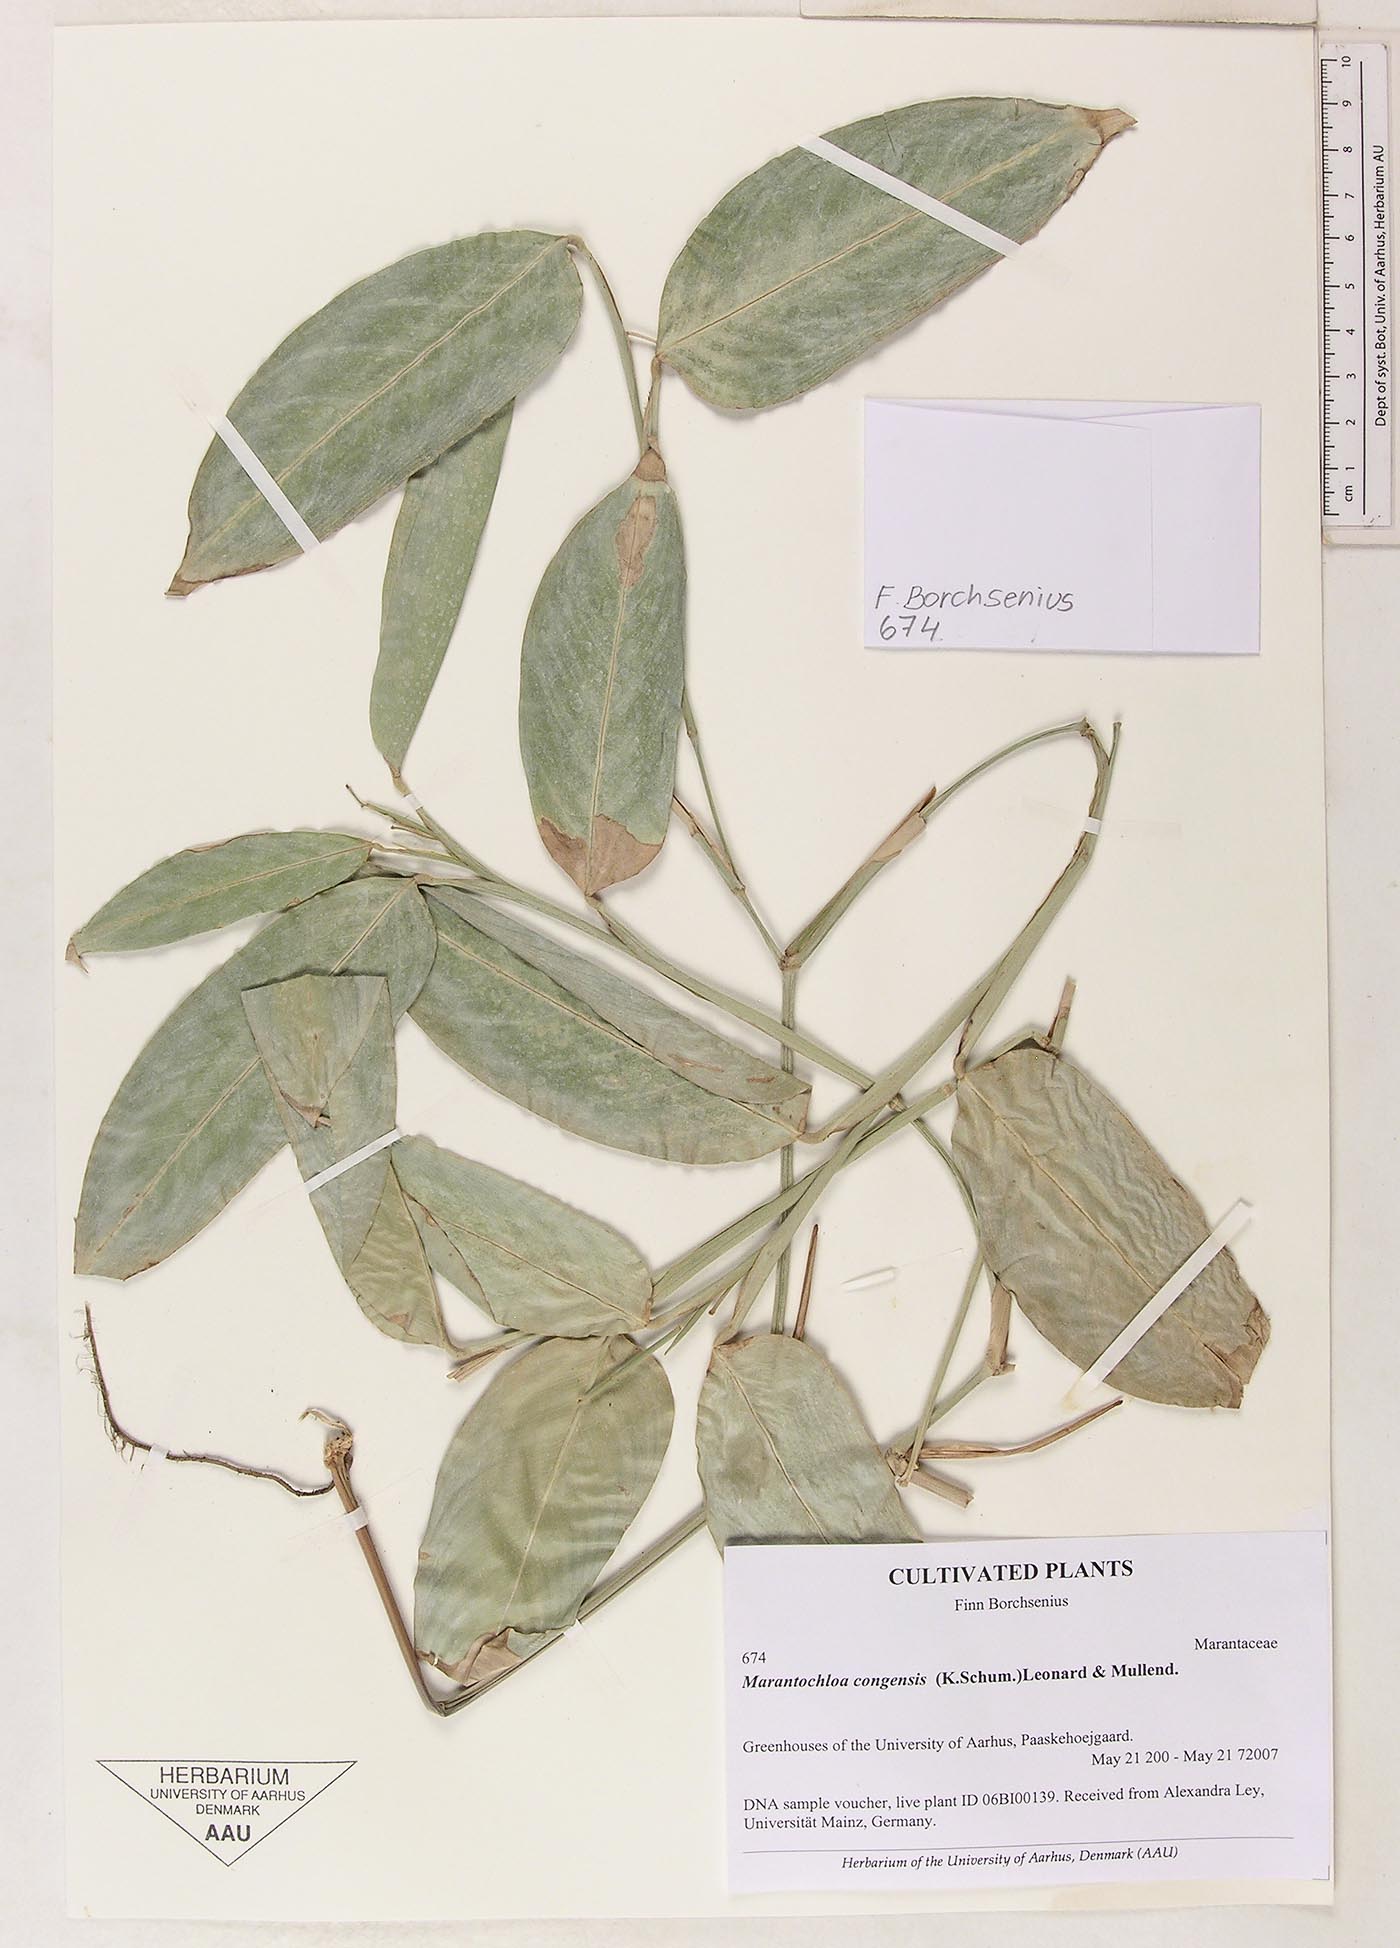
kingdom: Plantae
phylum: Tracheophyta
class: Liliopsida
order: Zingiberales
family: Marantaceae
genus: Marantochloa
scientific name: Marantochloa congensis
